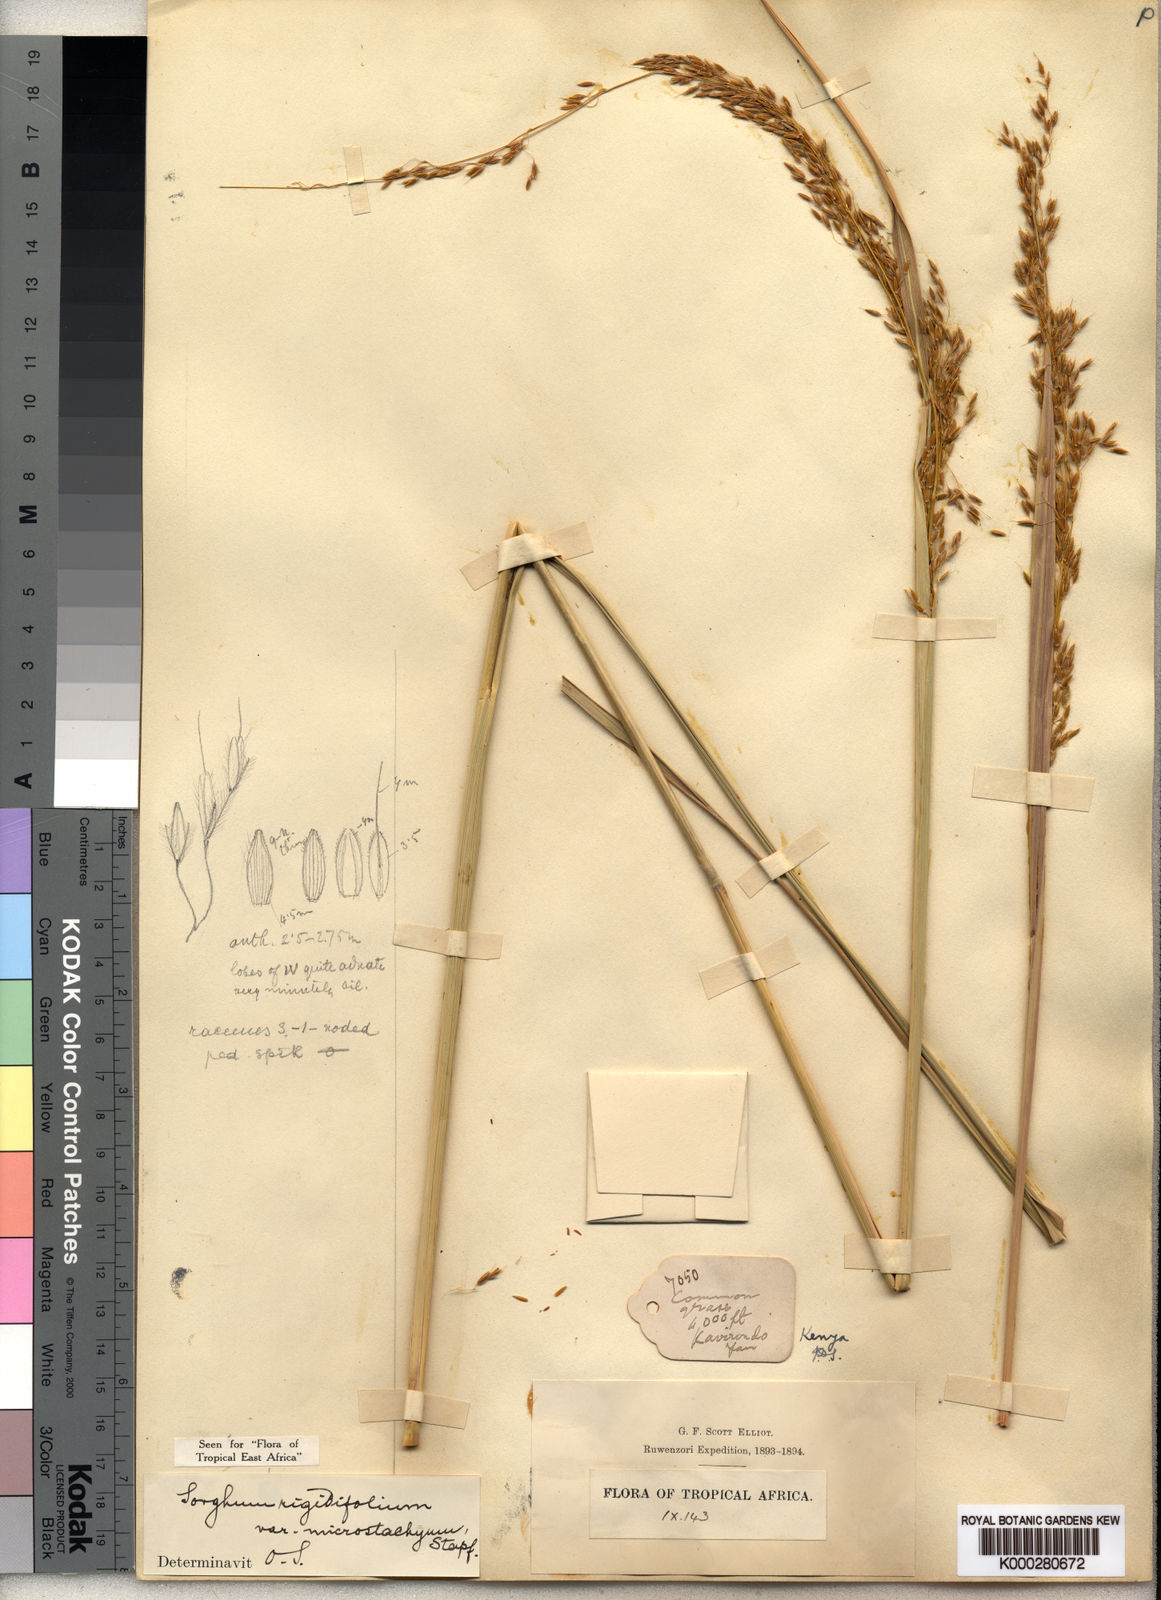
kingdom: Plantae
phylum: Tracheophyta
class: Liliopsida
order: Poales
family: Poaceae
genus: Sorghastrum
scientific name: Sorghastrum stipoides
